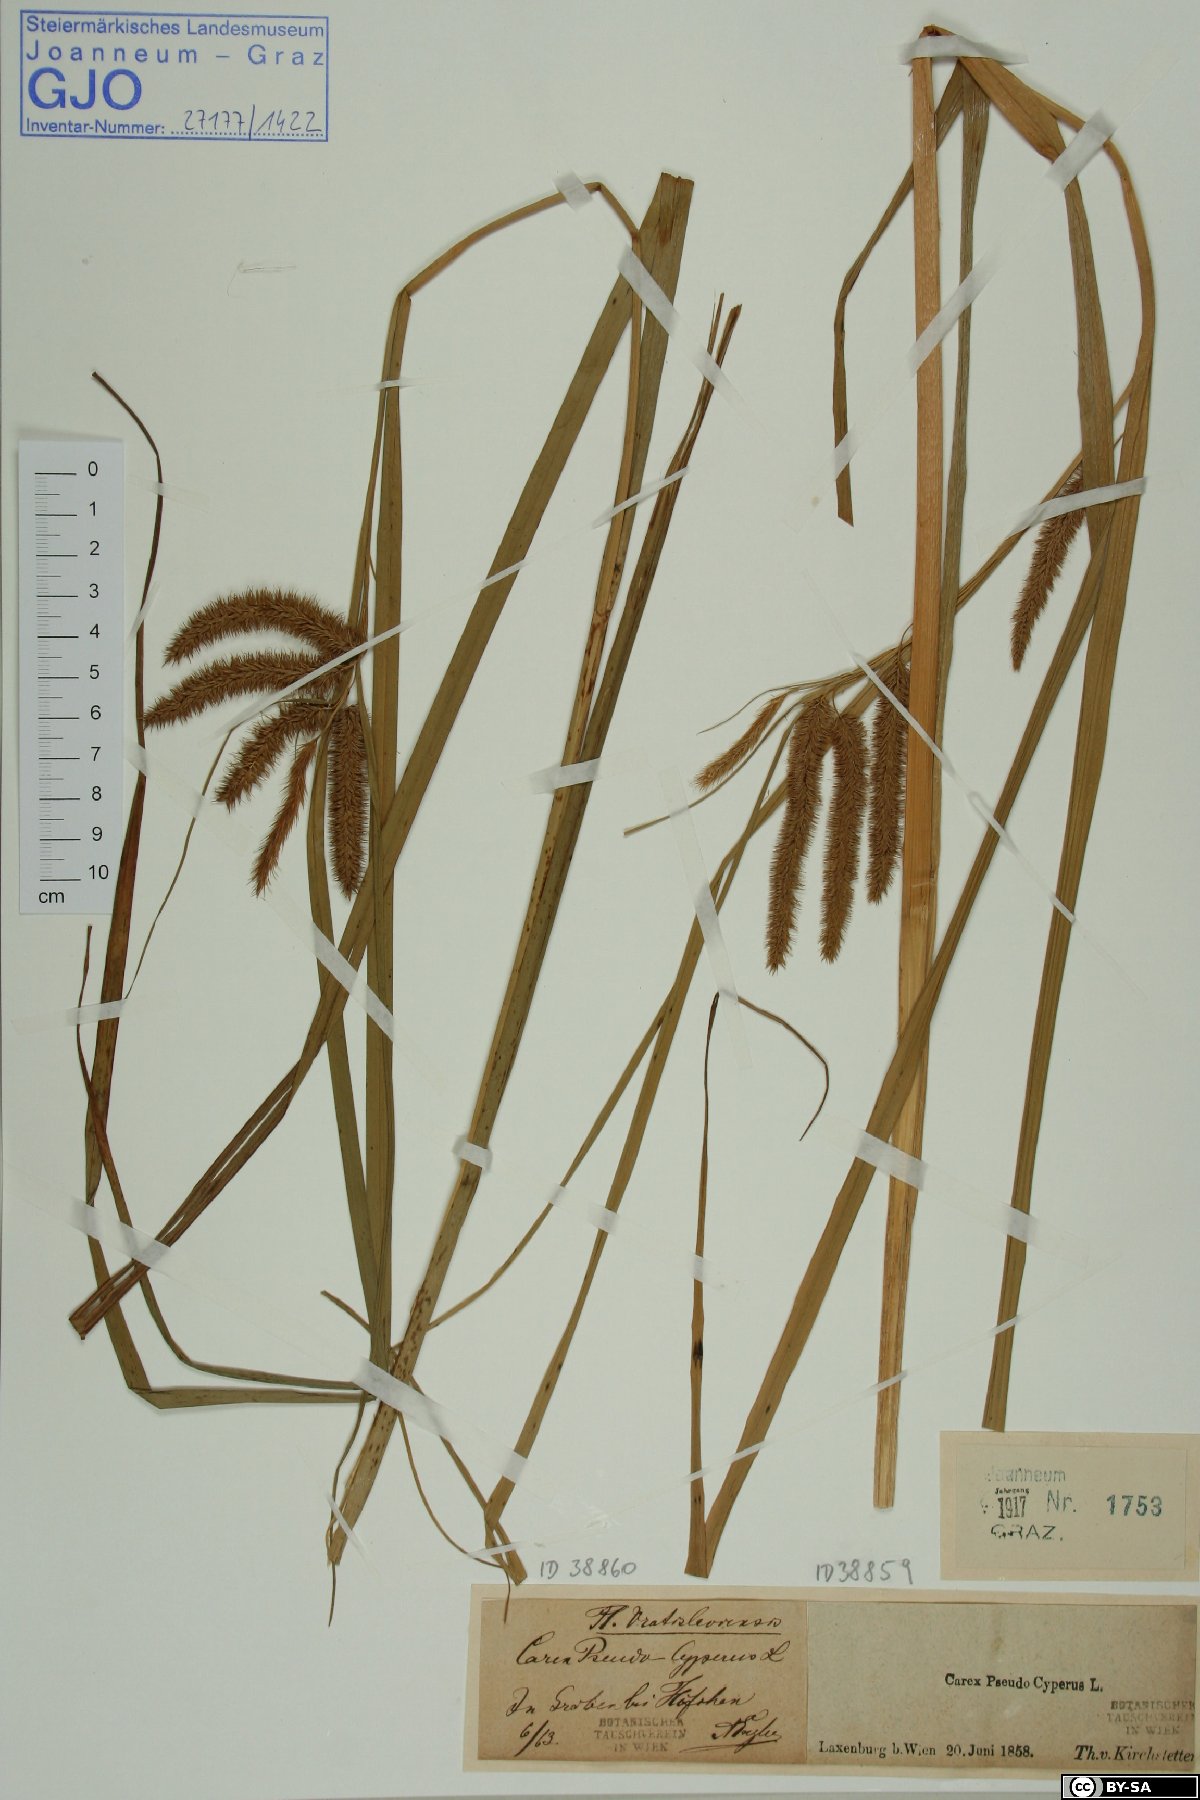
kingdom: Plantae
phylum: Tracheophyta
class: Liliopsida
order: Poales
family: Cyperaceae
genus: Carex
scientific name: Carex pseudocyperus
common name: Cyperus sedge
